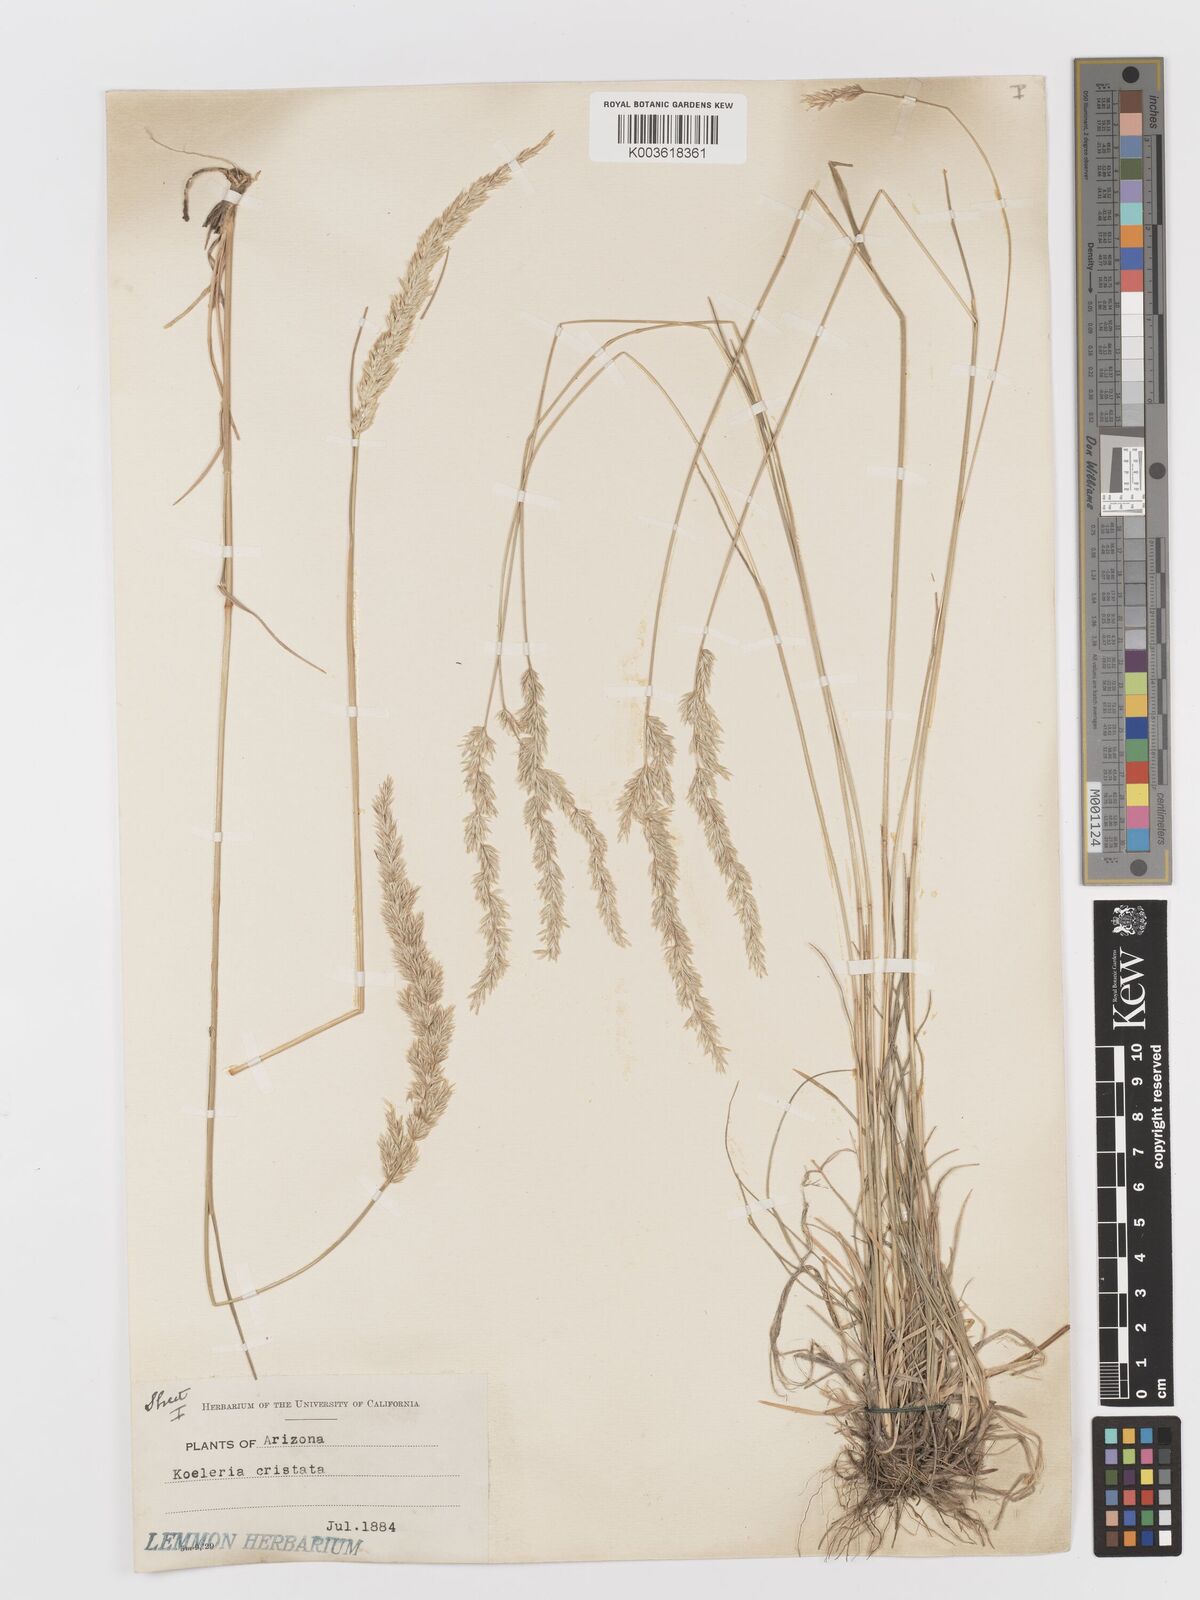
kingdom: Plantae
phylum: Tracheophyta
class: Liliopsida
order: Poales
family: Poaceae
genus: Koeleria
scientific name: Koeleria
